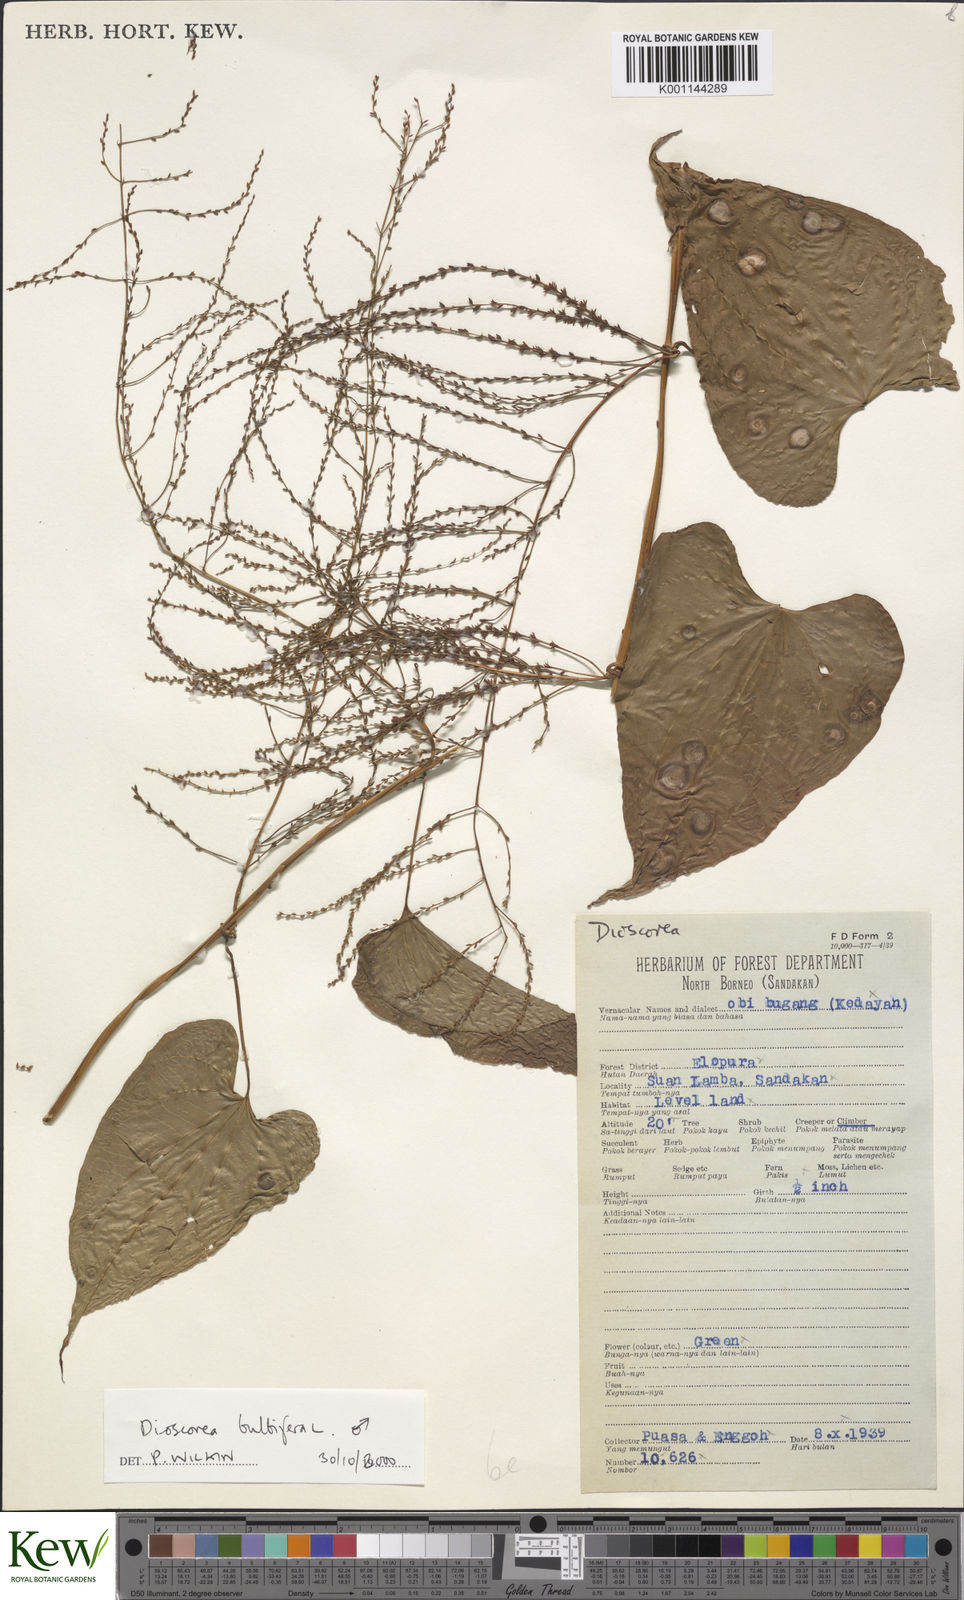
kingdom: Plantae
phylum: Tracheophyta
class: Liliopsida
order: Dioscoreales
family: Dioscoreaceae
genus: Dioscorea
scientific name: Dioscorea bulbifera
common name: Air yam
